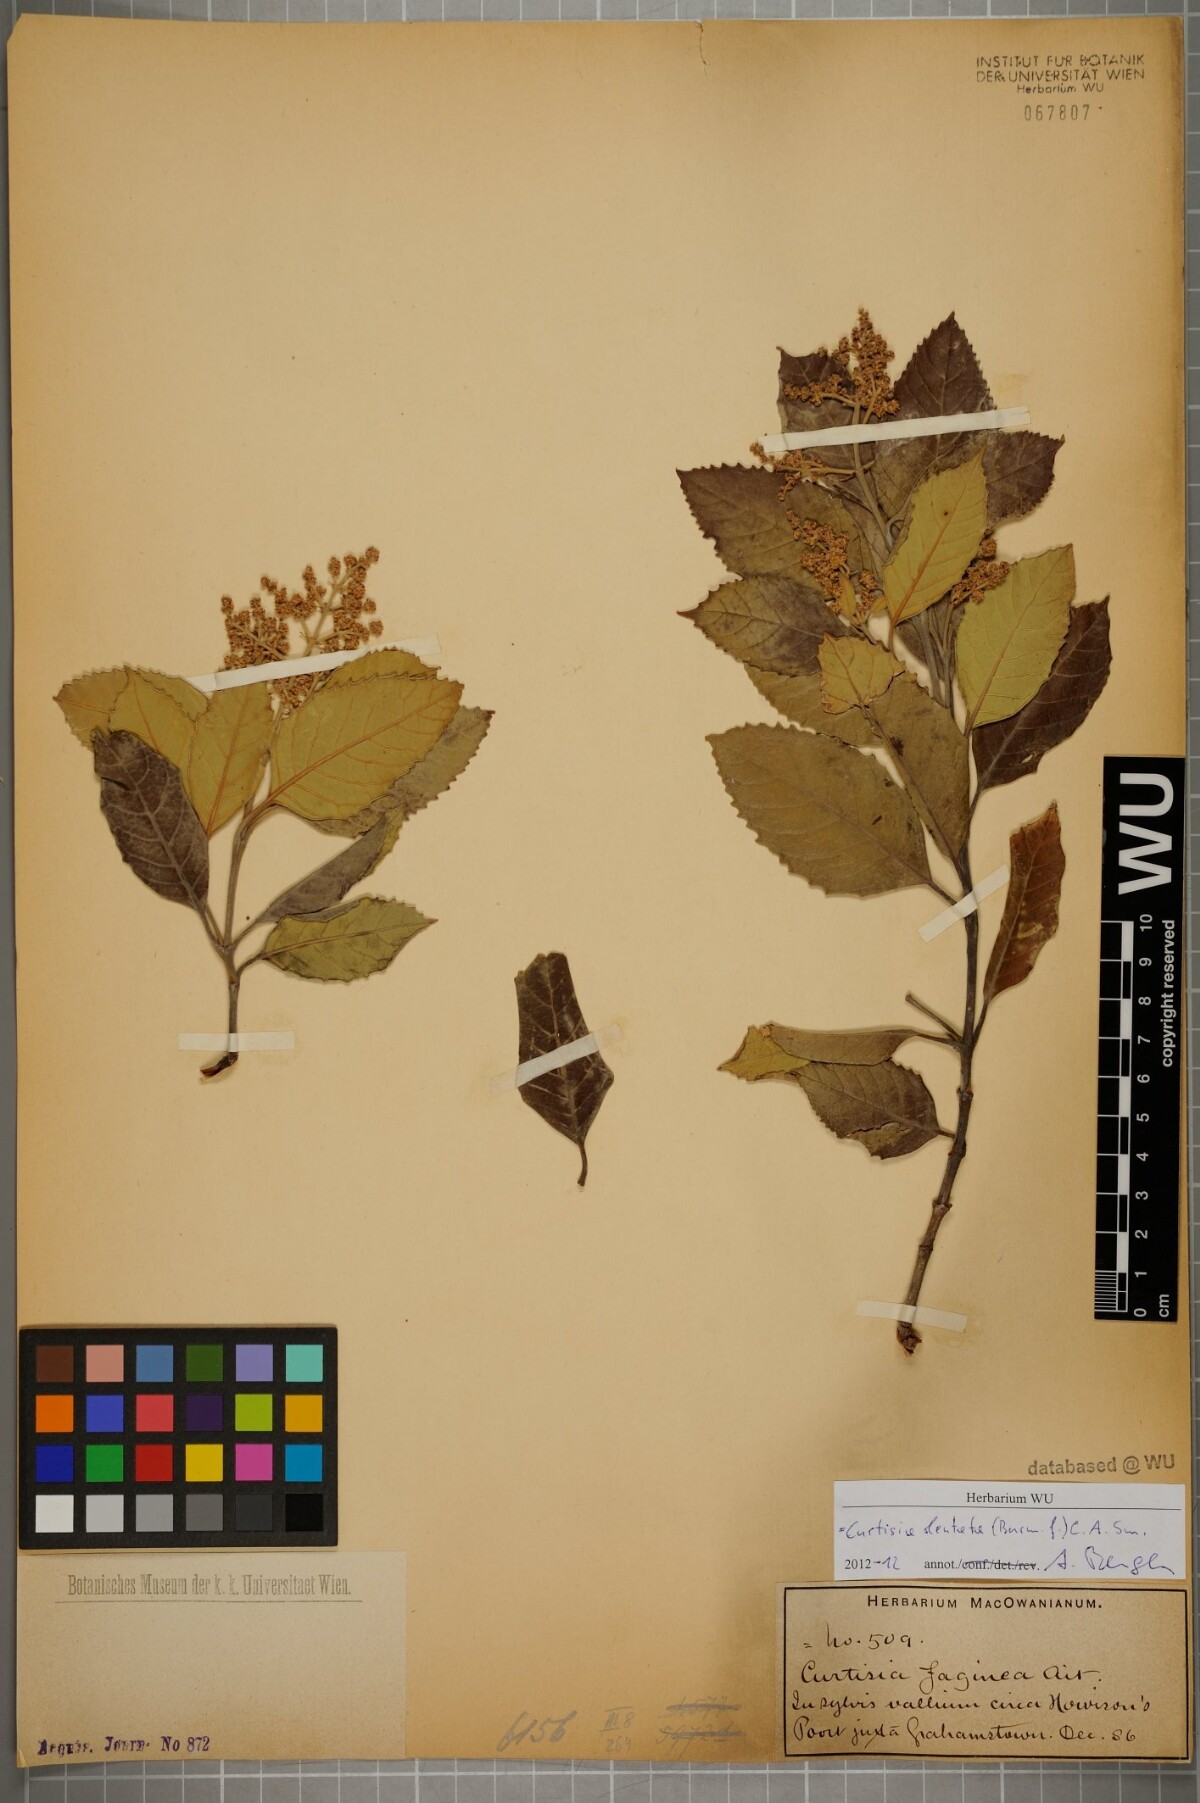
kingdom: Plantae
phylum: Tracheophyta
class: Magnoliopsida
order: Cornales
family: Curtisiaceae
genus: Curtisia
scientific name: Curtisia dentata
